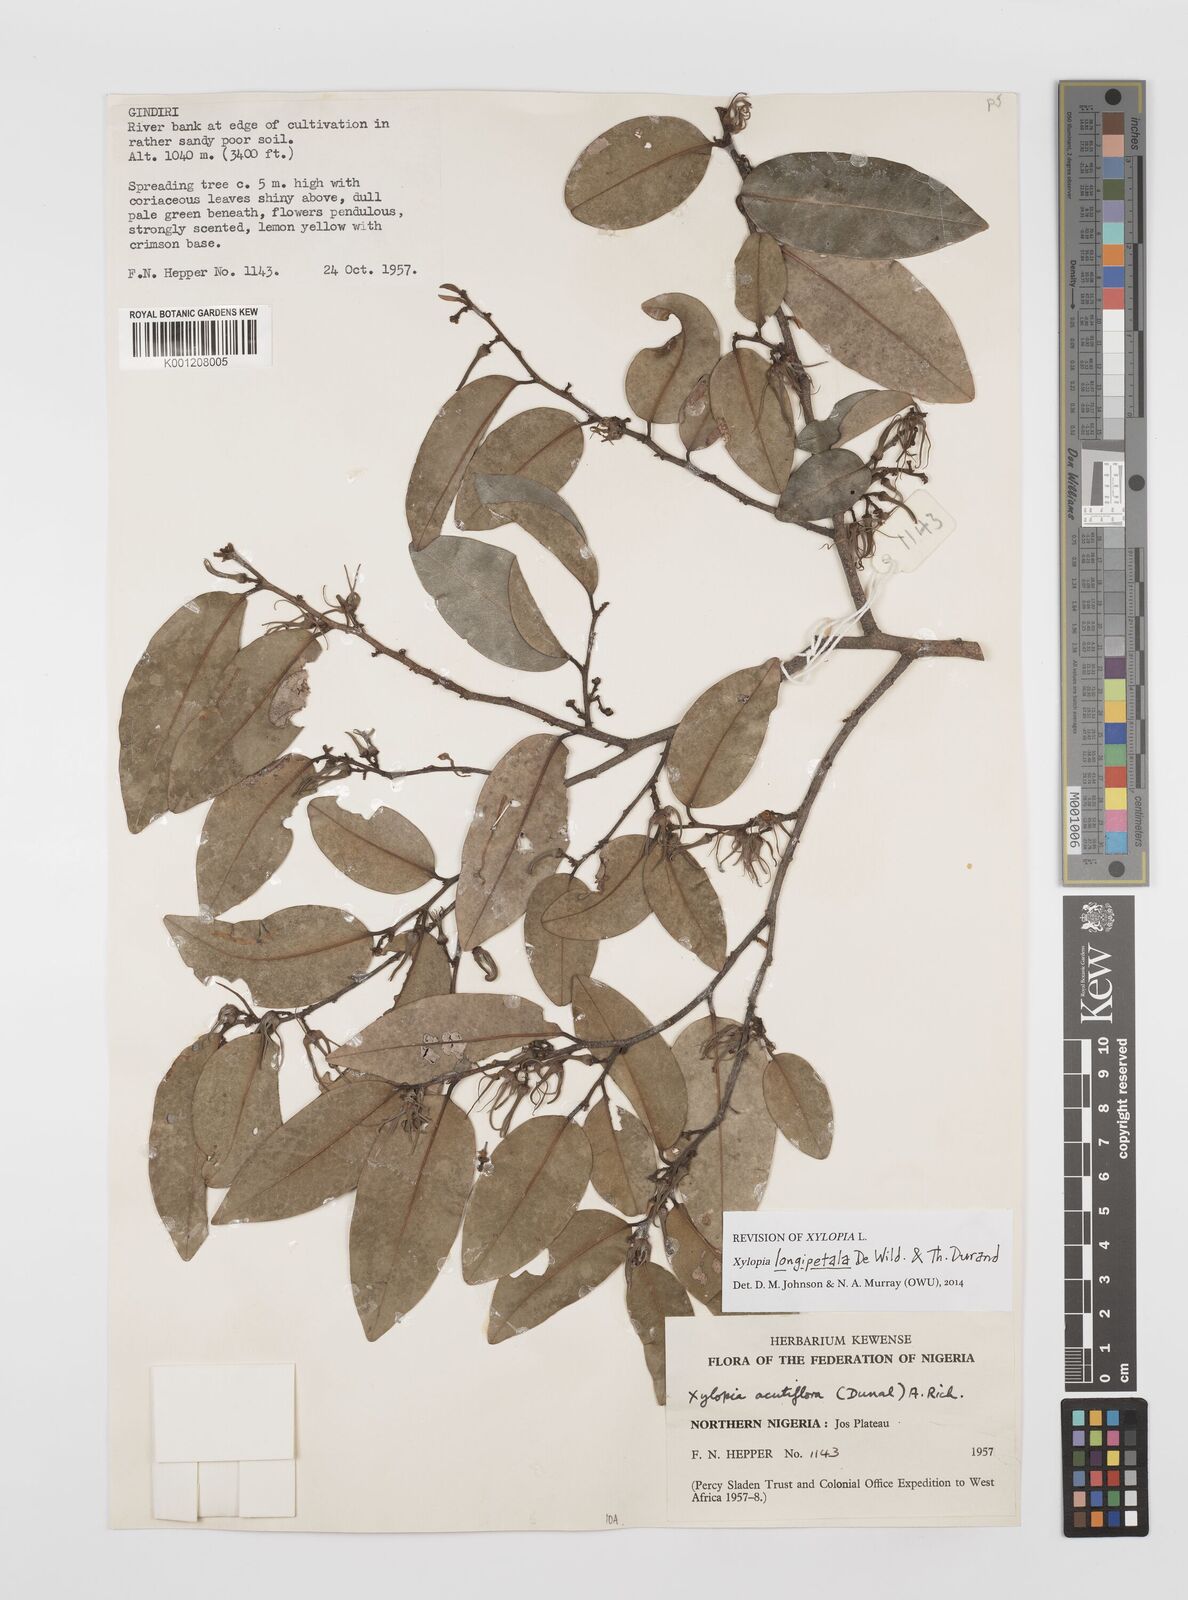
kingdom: Plantae
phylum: Tracheophyta
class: Magnoliopsida
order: Magnoliales
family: Annonaceae
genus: Xylopia
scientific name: Xylopia parviflora
